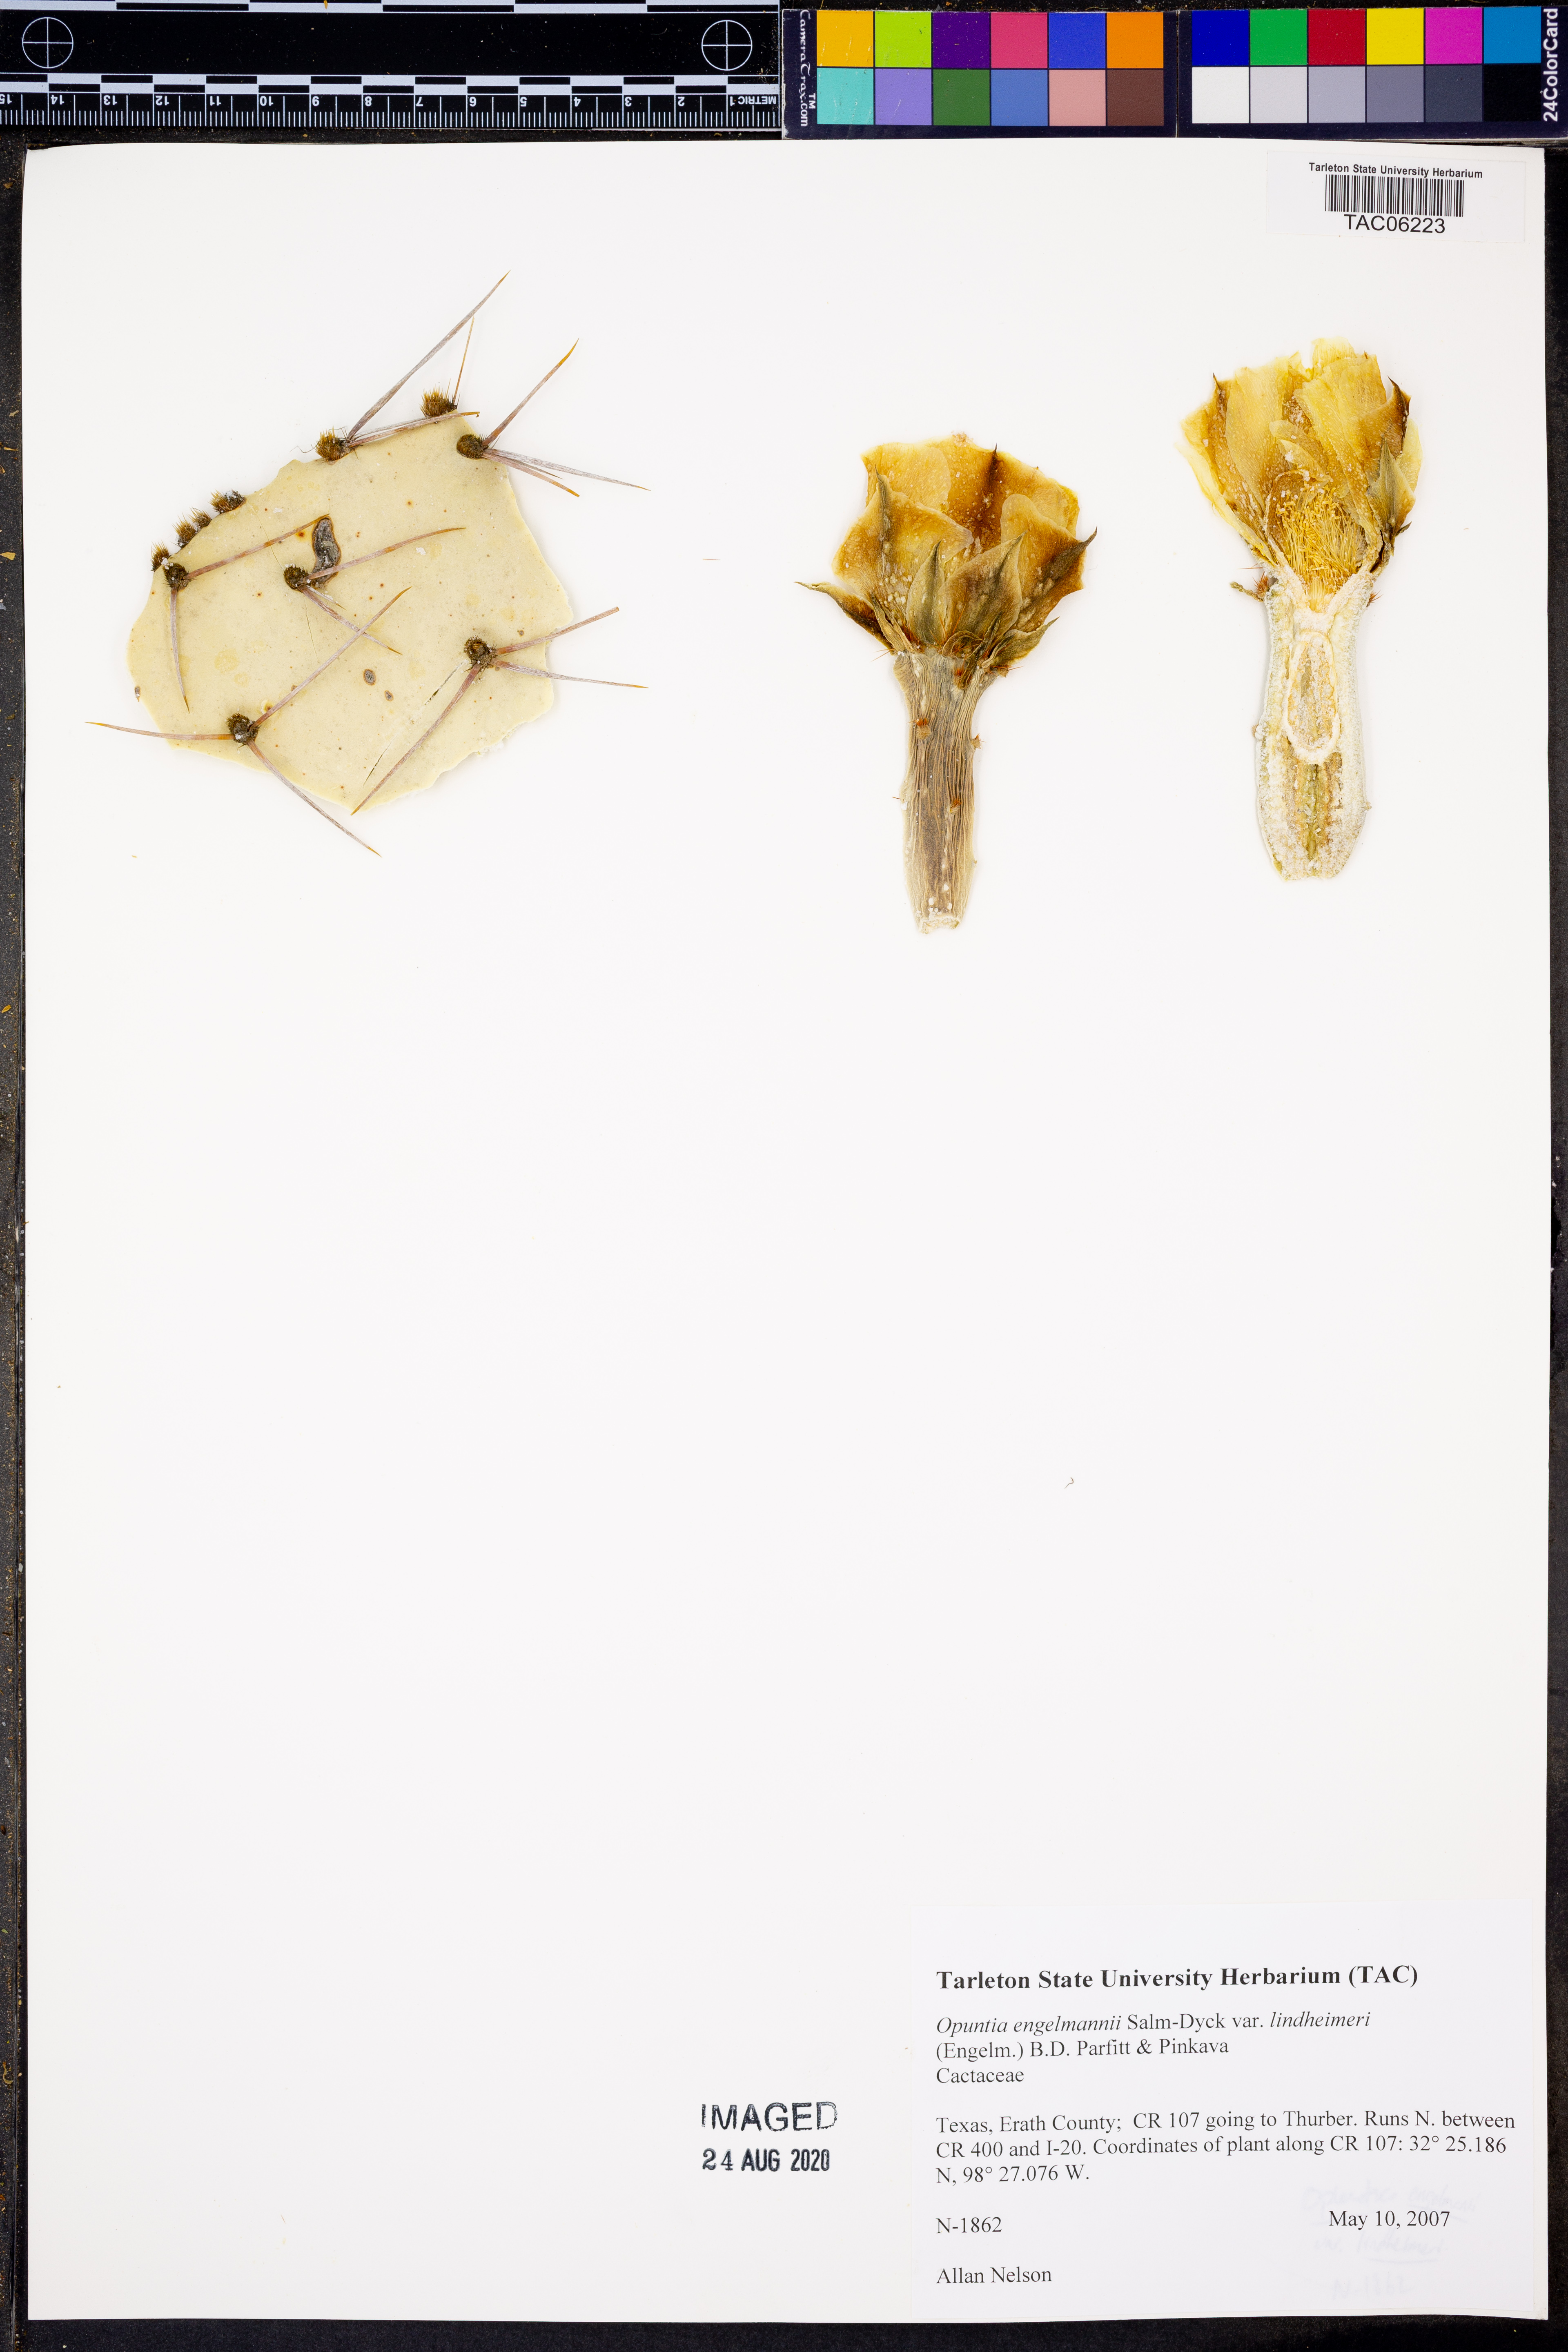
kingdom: Plantae
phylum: Tracheophyta
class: Magnoliopsida
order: Caryophyllales
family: Cactaceae
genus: Opuntia
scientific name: Opuntia engelmannii
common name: Cactus-apple
